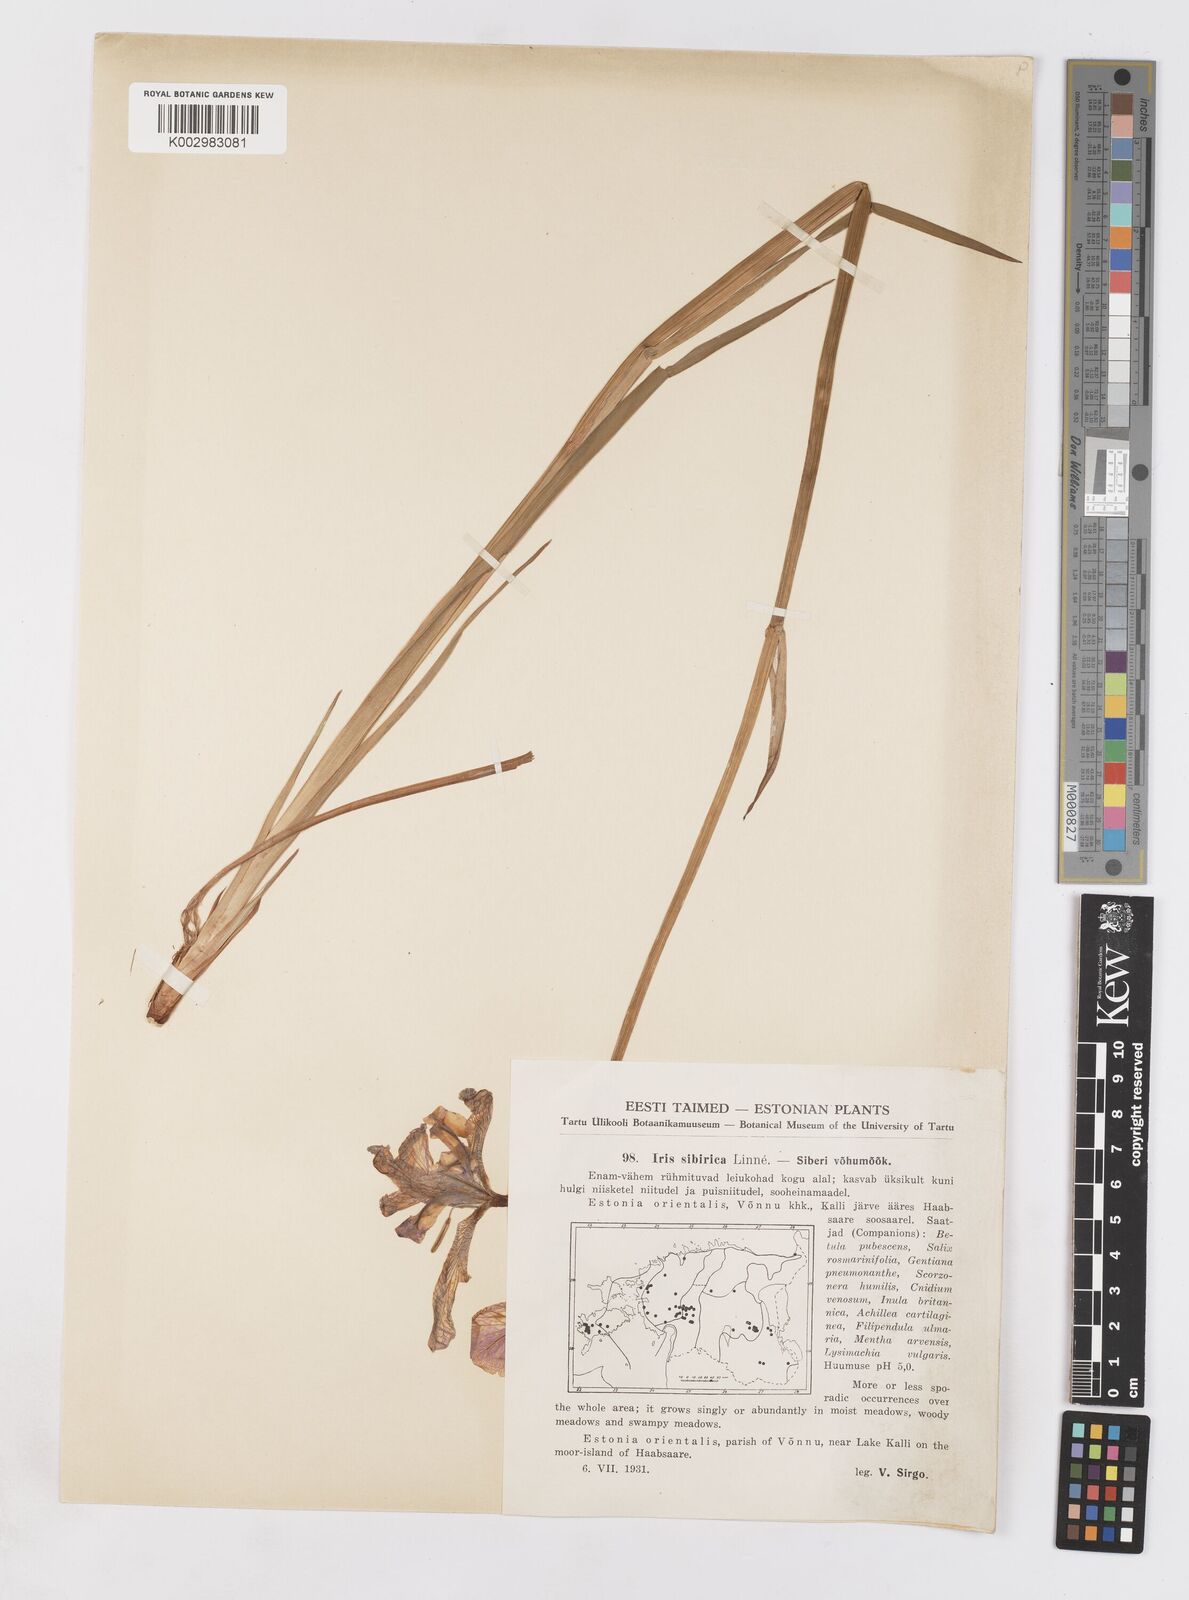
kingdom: Plantae
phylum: Tracheophyta
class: Liliopsida
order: Asparagales
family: Iridaceae
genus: Iris
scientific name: Iris sibirica
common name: Siberian iris
